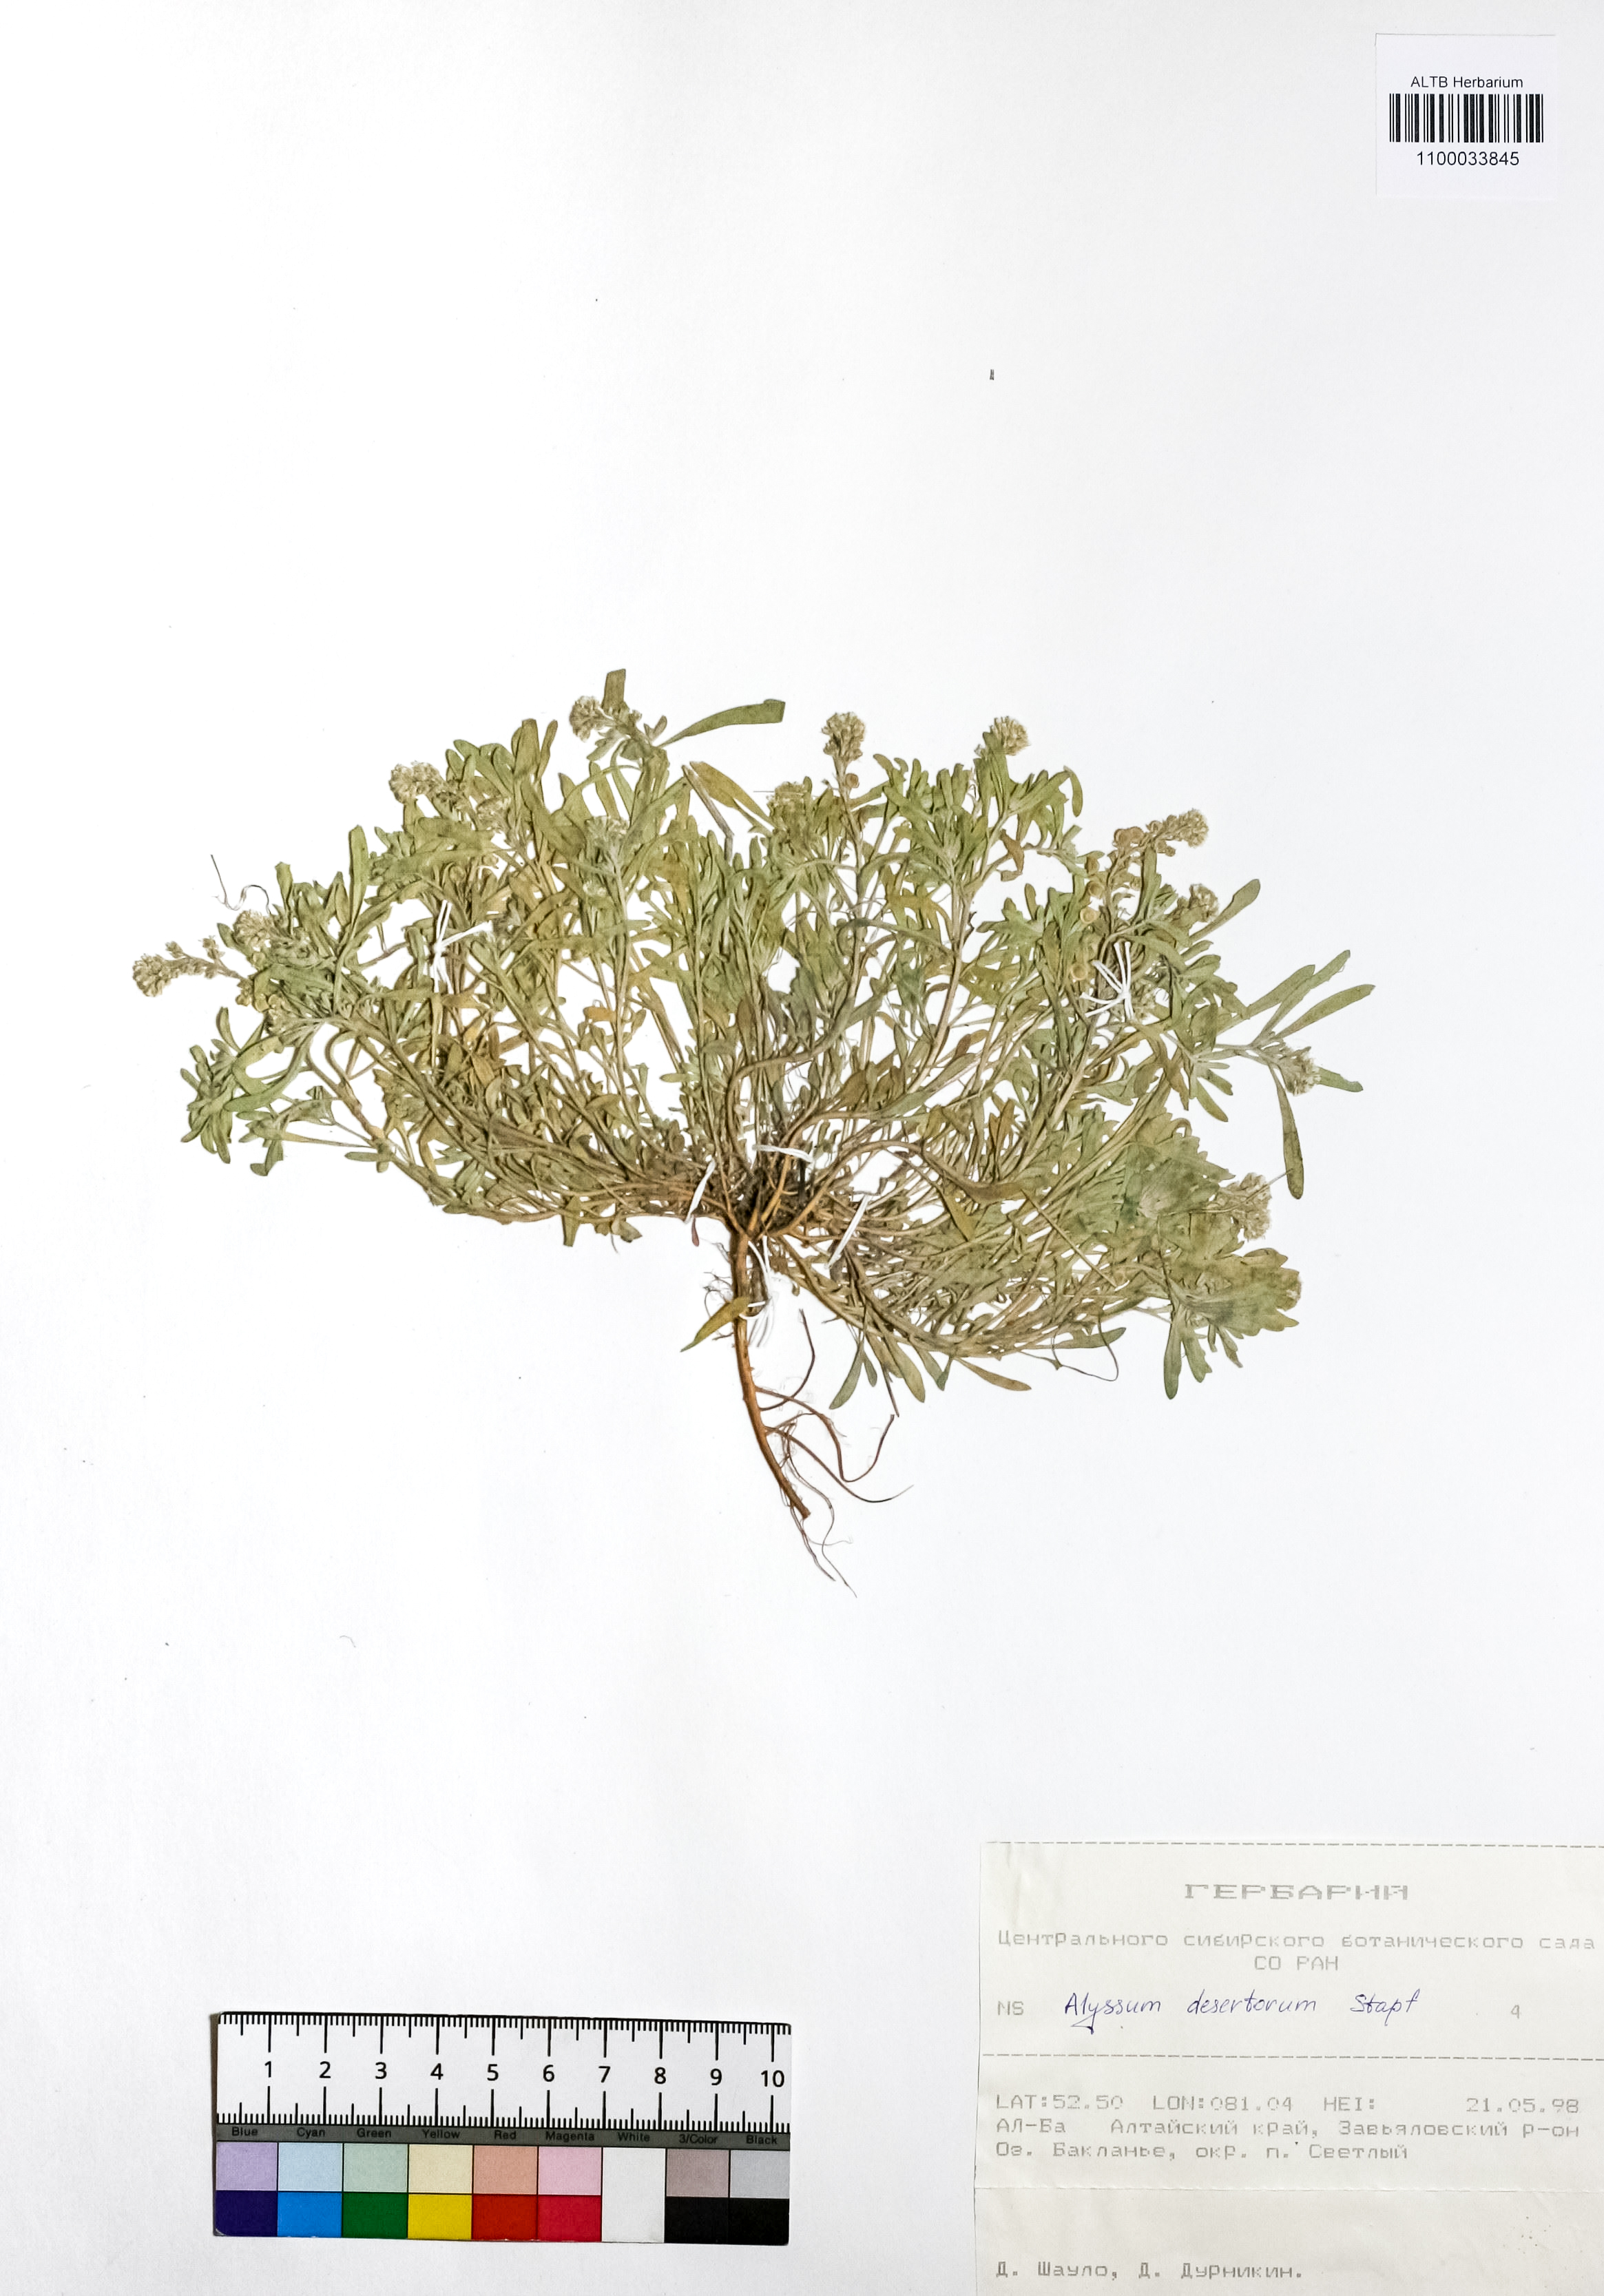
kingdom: Plantae
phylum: Tracheophyta
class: Magnoliopsida
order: Brassicales
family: Brassicaceae
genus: Alyssum
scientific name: Alyssum turkestanicum
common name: Desert alyssum
